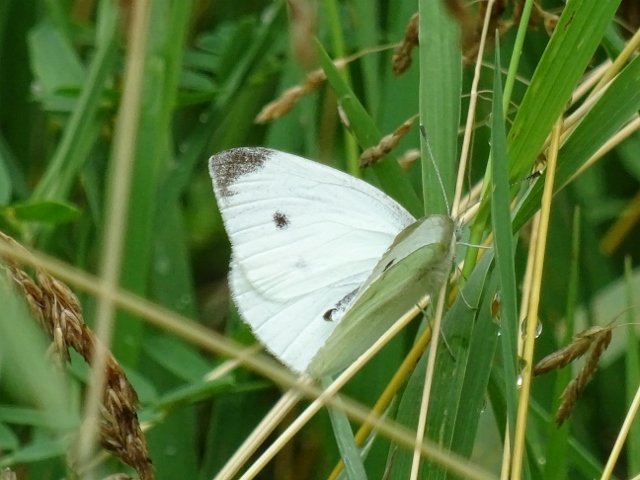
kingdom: Animalia
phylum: Arthropoda
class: Insecta
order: Lepidoptera
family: Pieridae
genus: Pieris
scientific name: Pieris rapae
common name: Cabbage White
